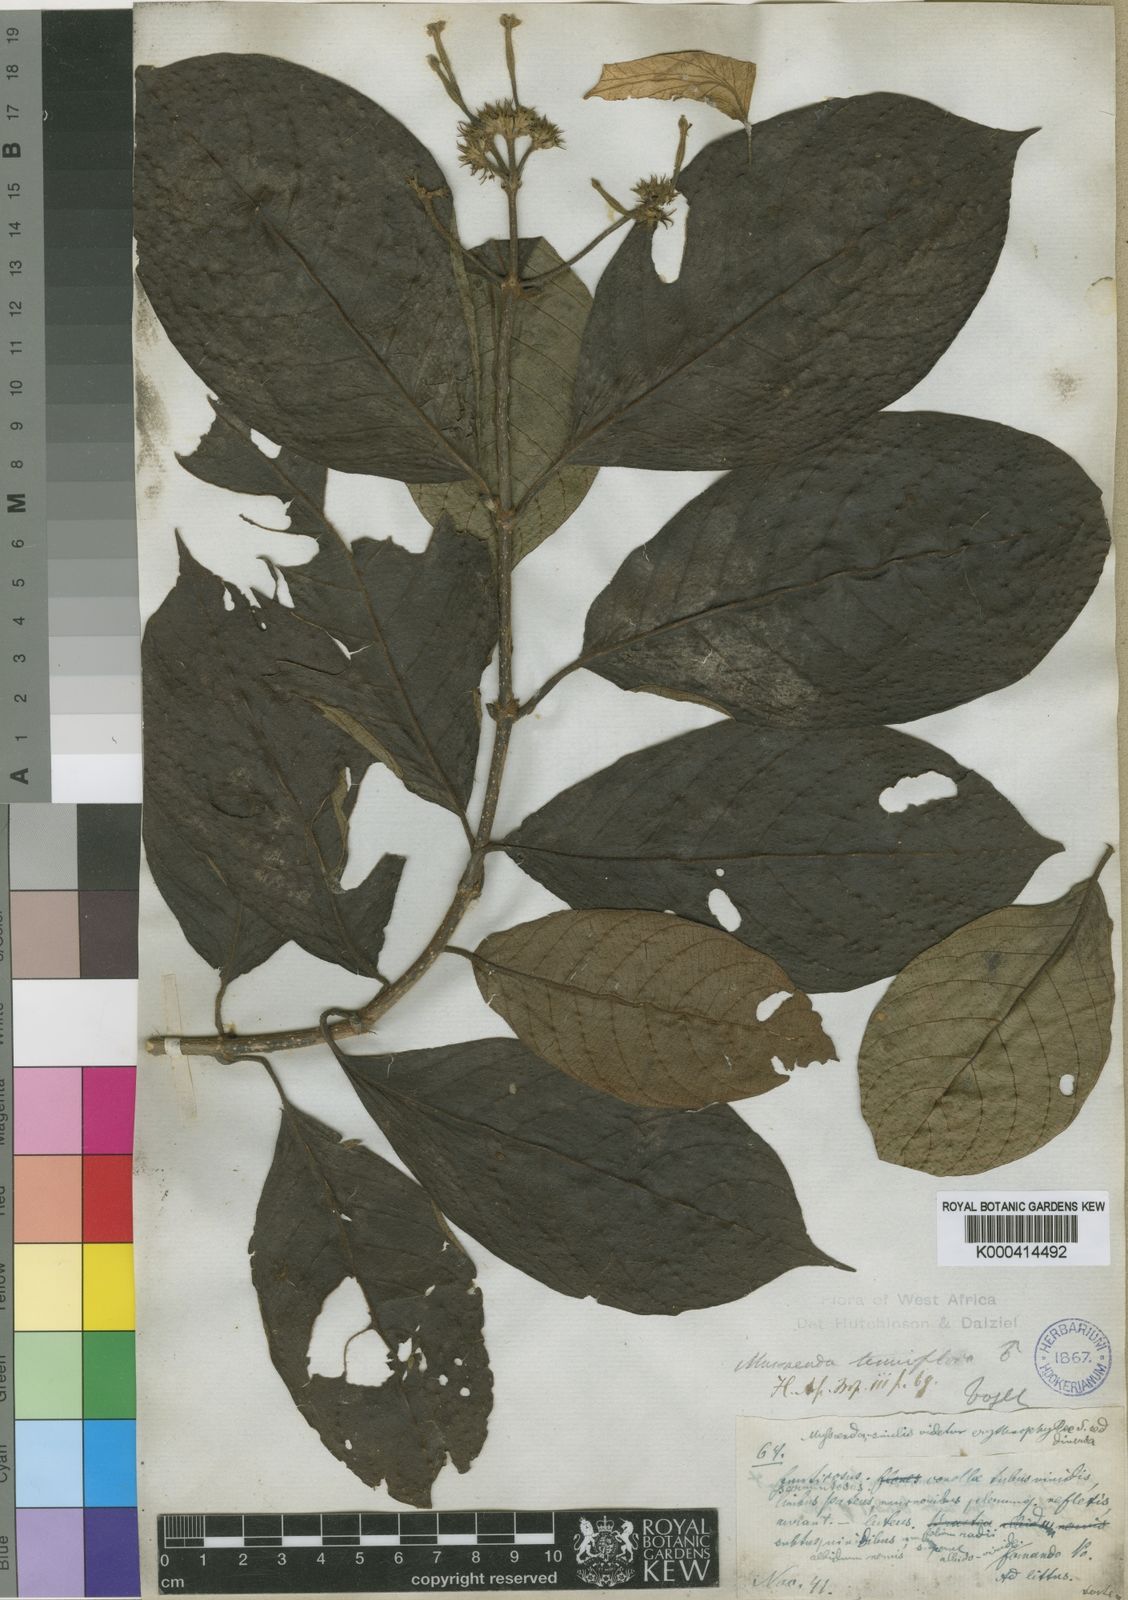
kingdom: Plantae
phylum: Tracheophyta
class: Magnoliopsida
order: Gentianales
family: Rubiaceae
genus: Mussaenda
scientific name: Mussaenda tenuiflora
